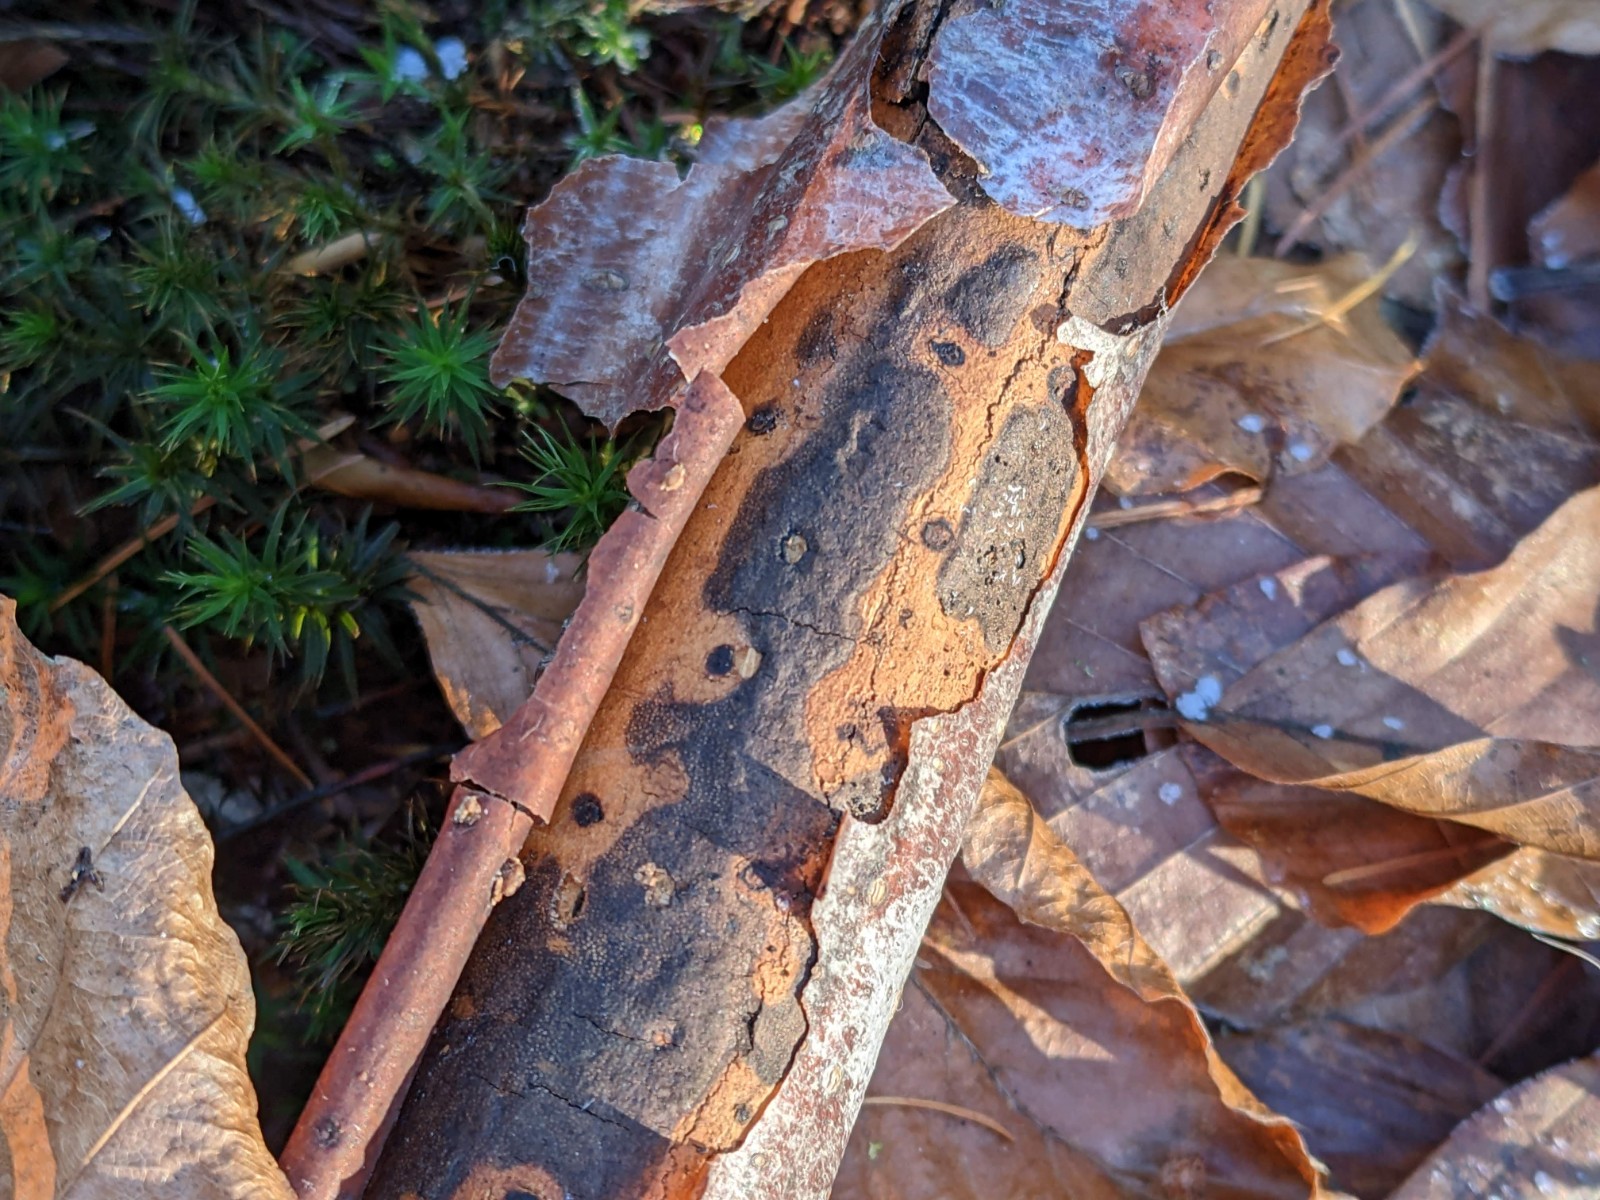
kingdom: Fungi
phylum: Ascomycota
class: Sordariomycetes
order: Xylariales
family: Diatrypaceae
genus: Diatrype
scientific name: Diatrype decorticata
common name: barksprænger-kulskorpe
